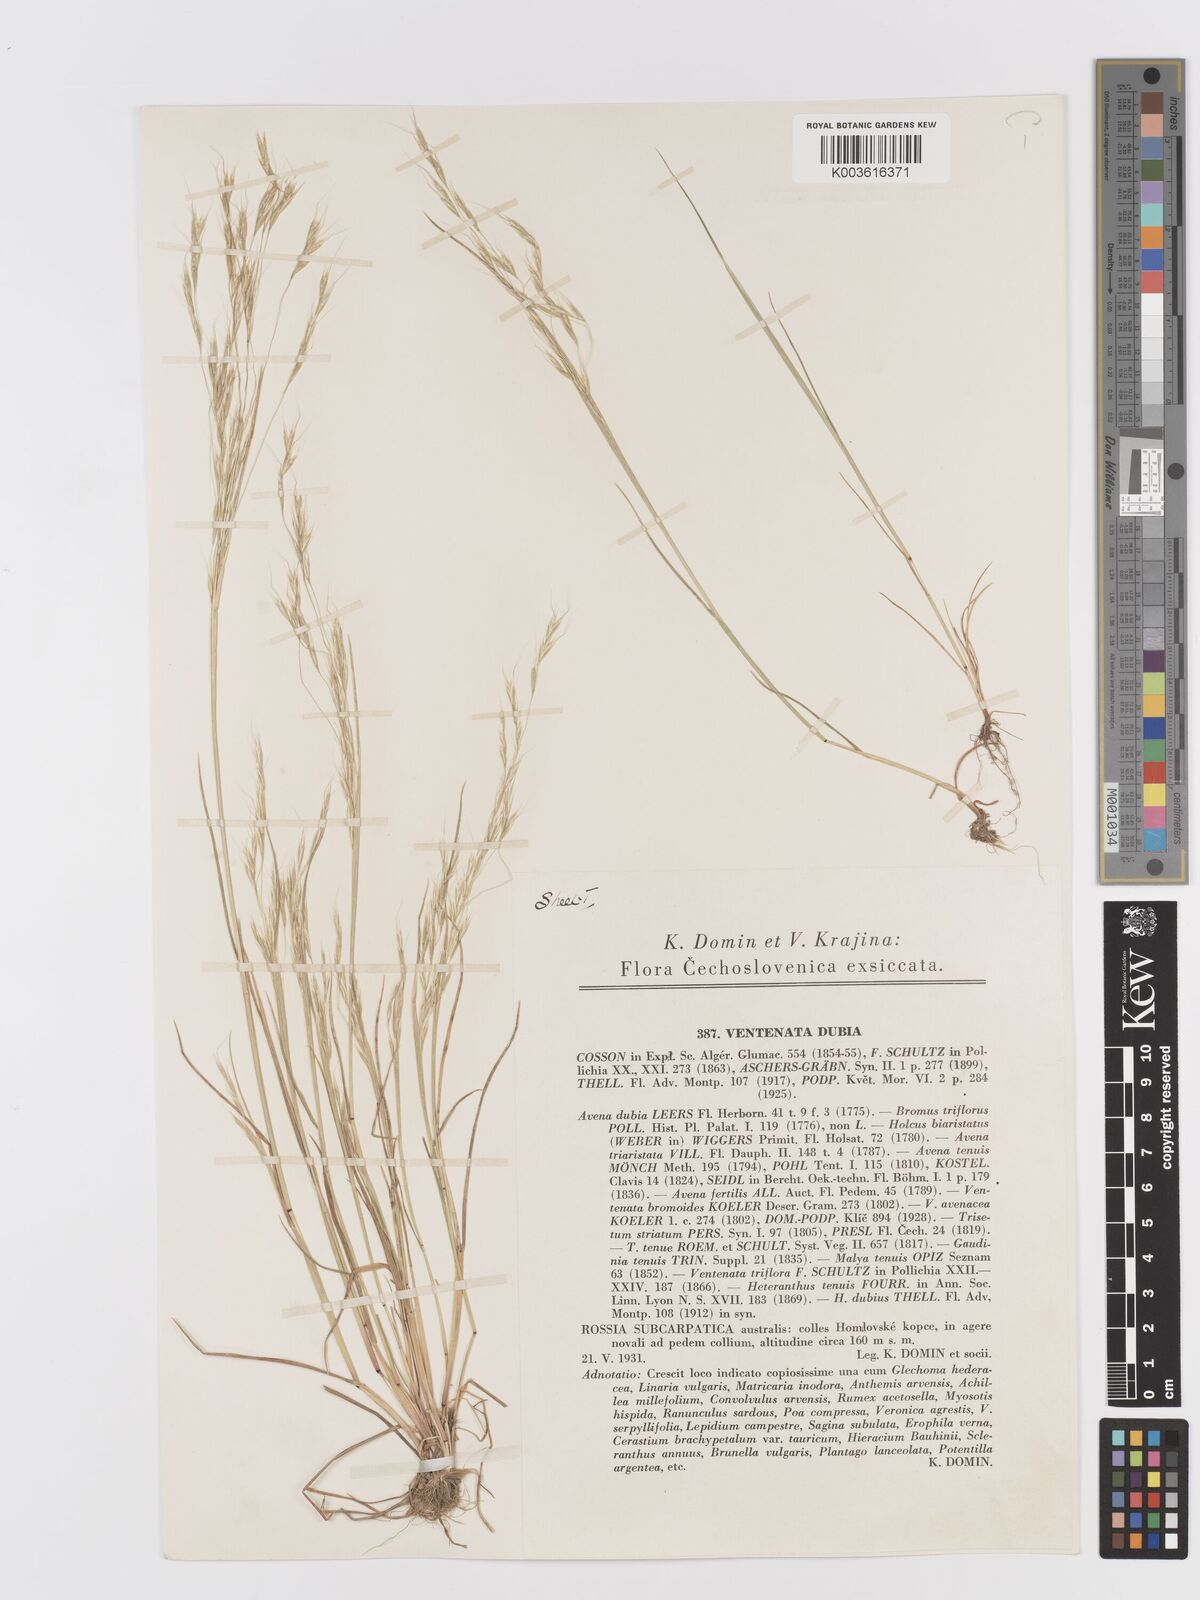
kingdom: Plantae
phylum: Tracheophyta
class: Liliopsida
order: Poales
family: Poaceae
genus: Ventenata
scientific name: Ventenata dubia
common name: North africa grass
